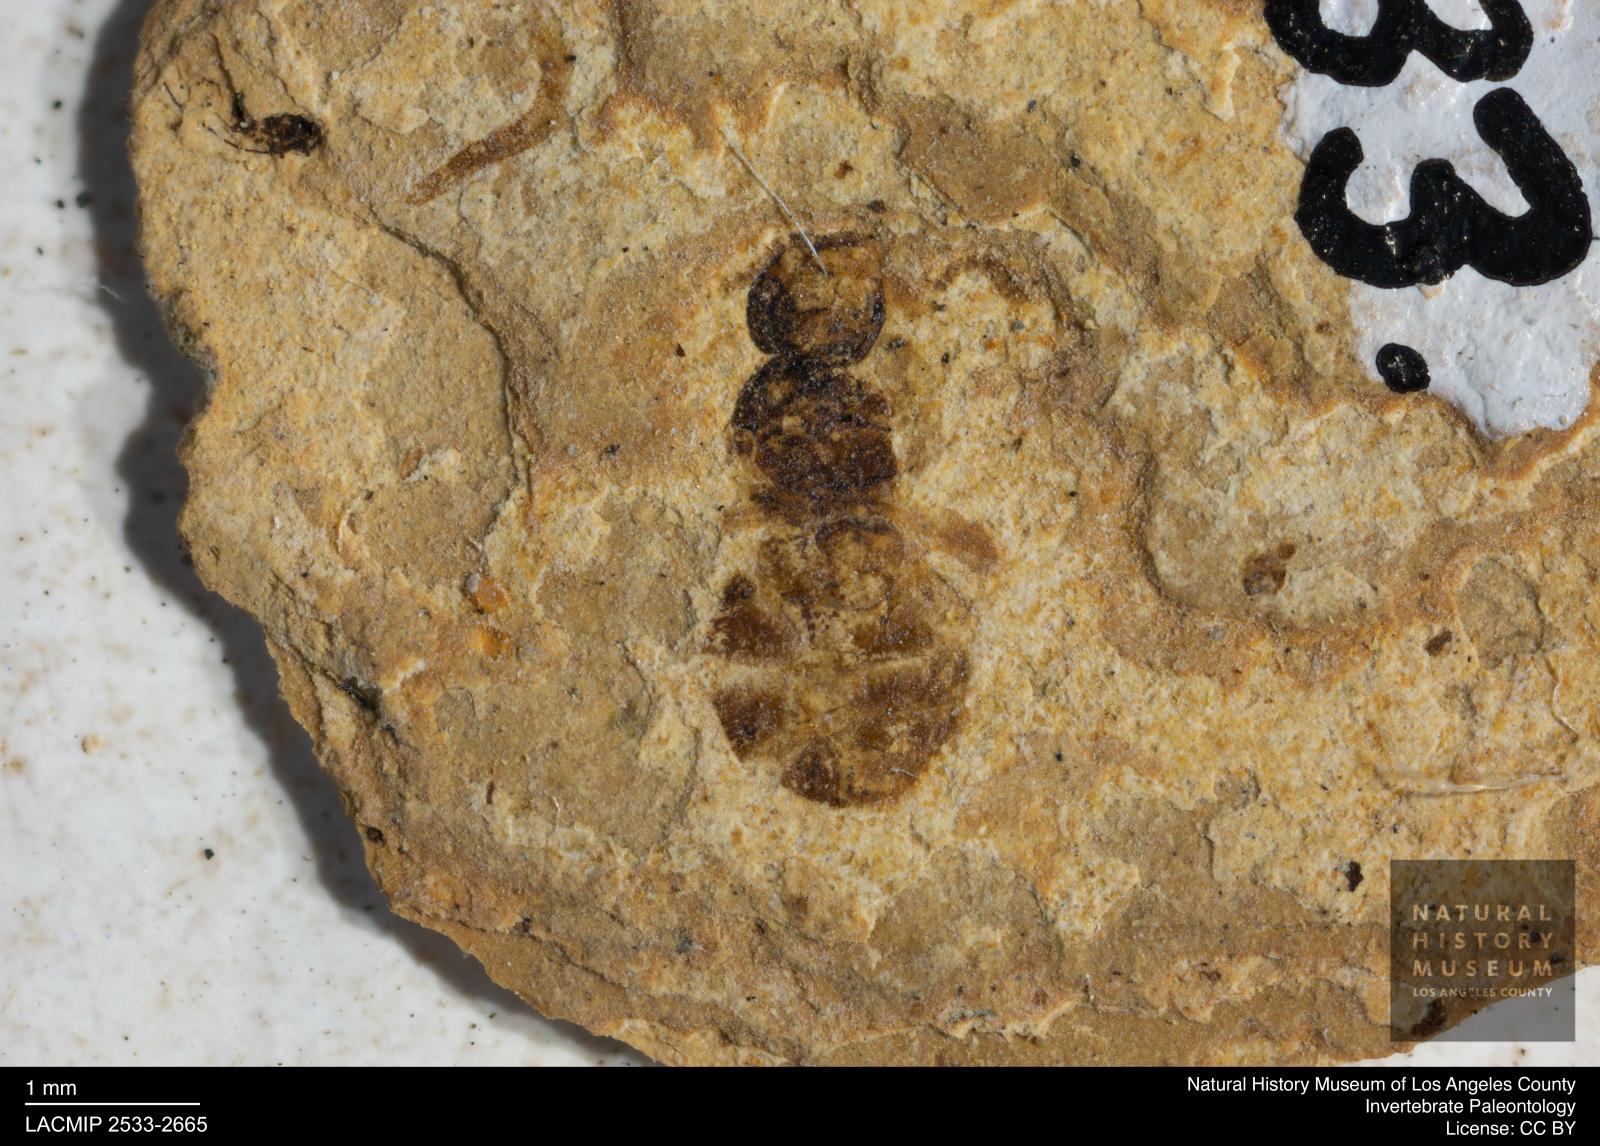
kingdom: Animalia
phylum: Arthropoda
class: Insecta
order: Hymenoptera
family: Formicidae
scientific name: Formicidae
